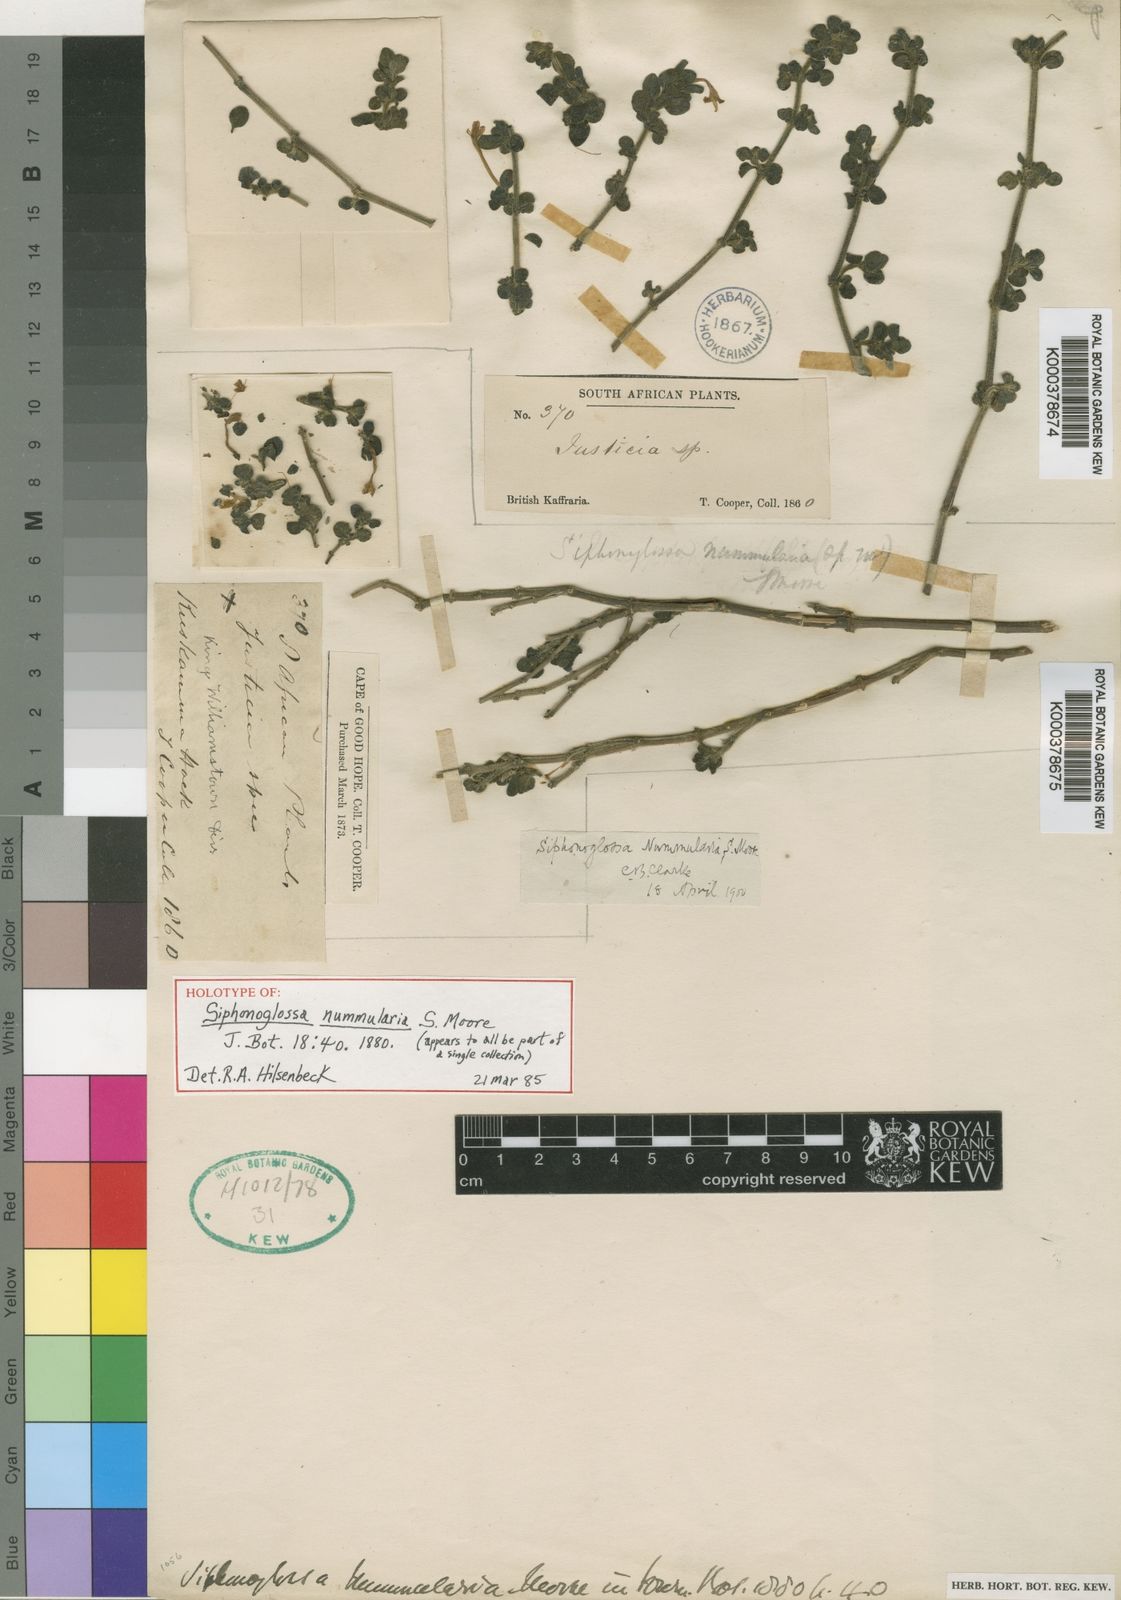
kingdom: Plantae
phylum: Tracheophyta
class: Magnoliopsida
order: Lamiales
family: Acanthaceae
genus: Dianthera
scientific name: Dianthera brasiliensis
